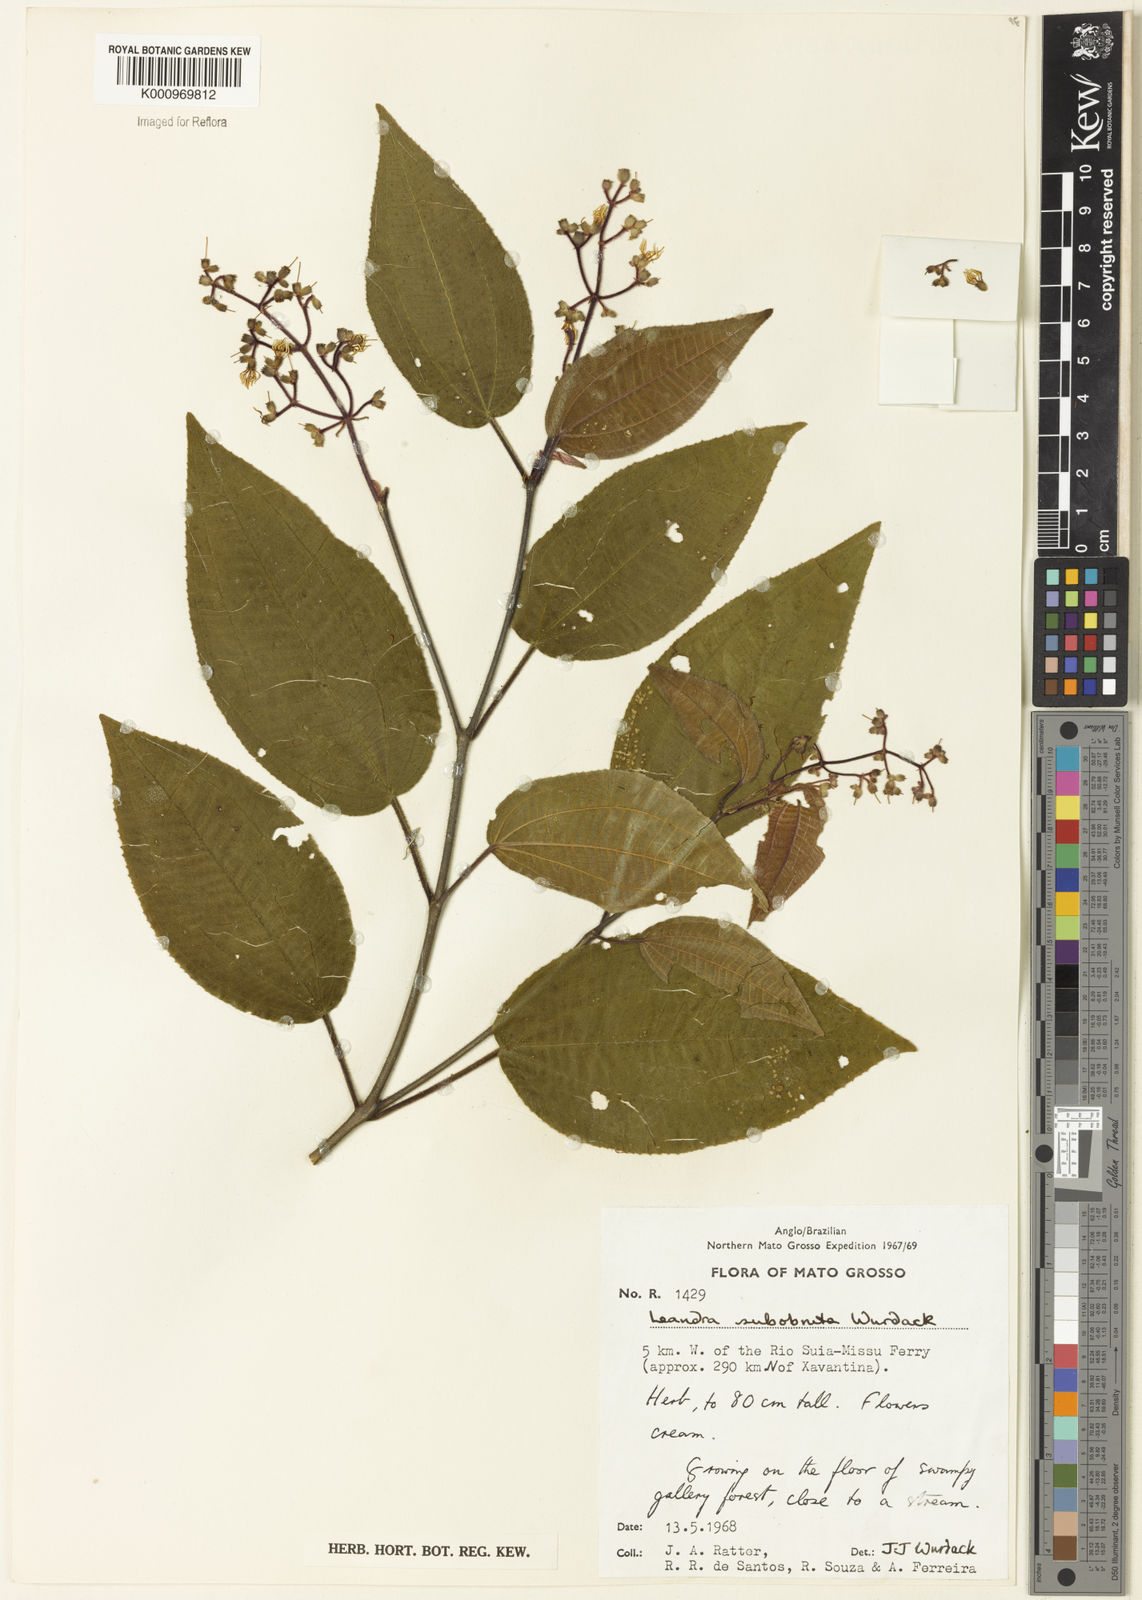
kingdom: Plantae
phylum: Tracheophyta
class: Magnoliopsida
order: Myrtales
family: Melastomataceae
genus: Miconia
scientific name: Miconia subobruta
